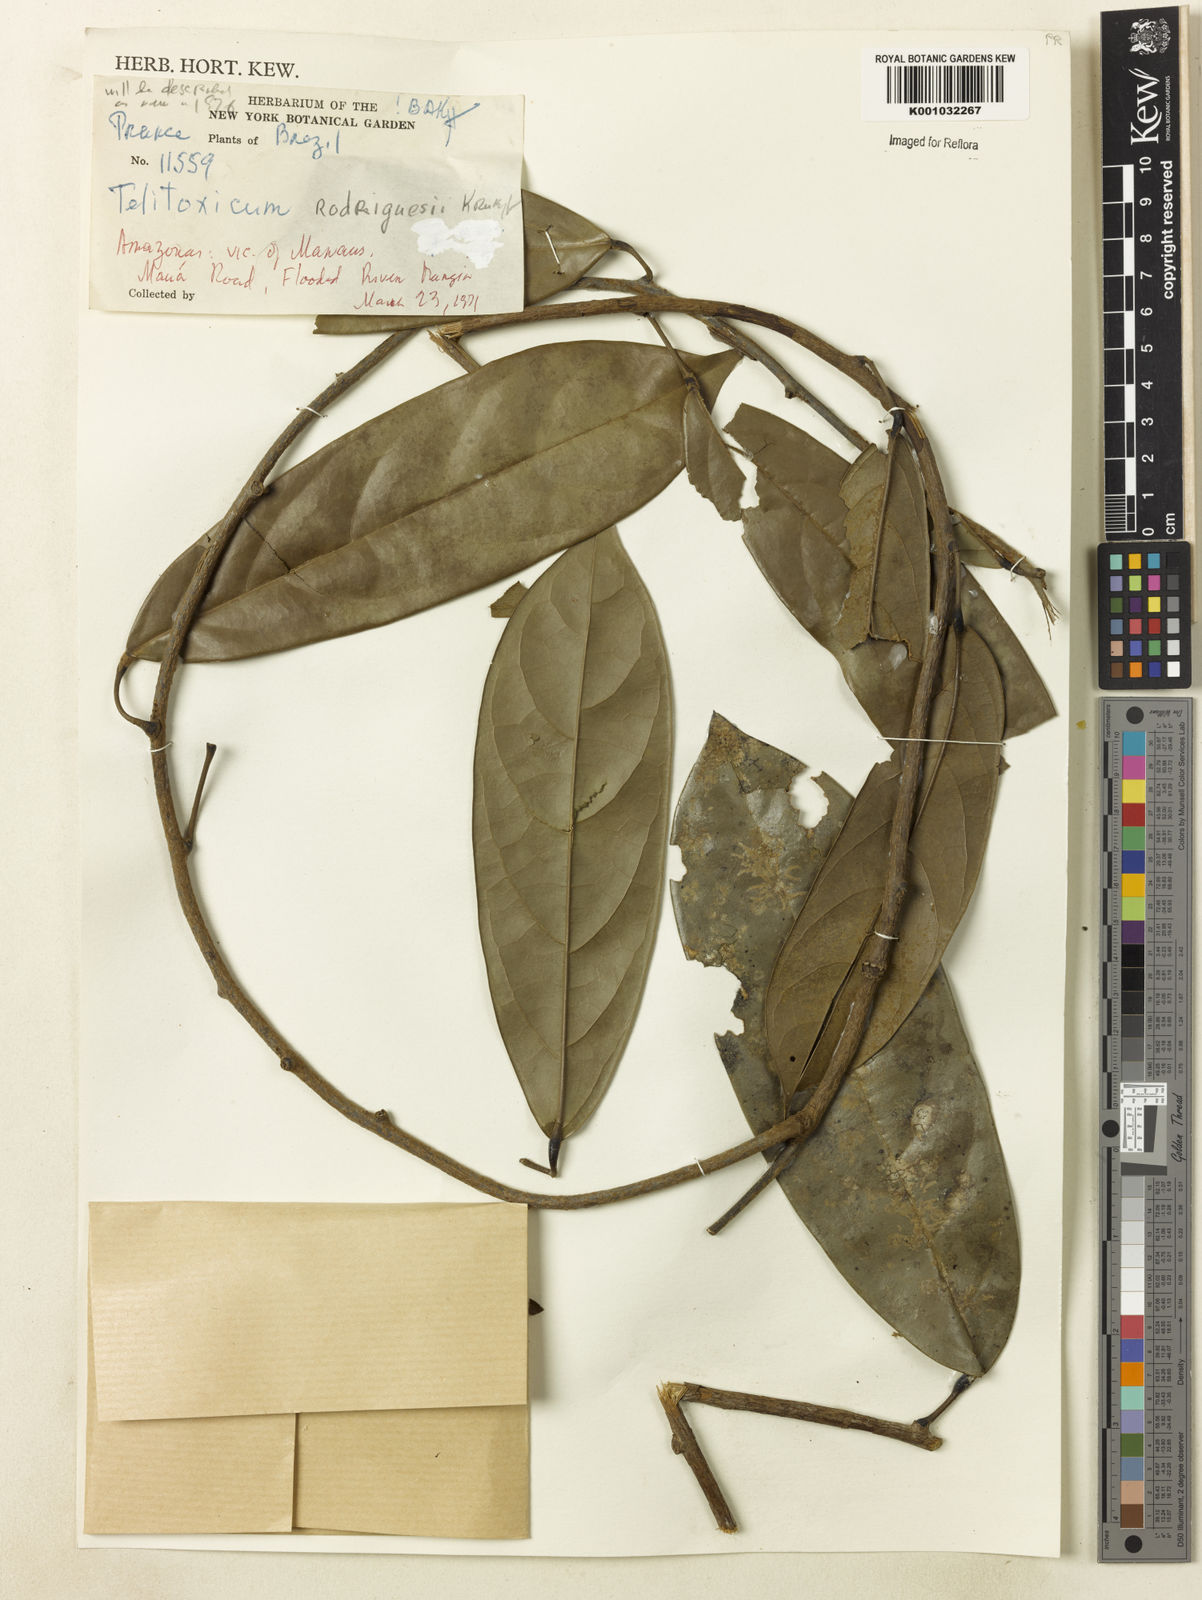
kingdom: Plantae
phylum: Tracheophyta
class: Magnoliopsida
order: Ranunculales
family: Menispermaceae
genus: Telitoxicum
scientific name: Telitoxicum rodriguesii
